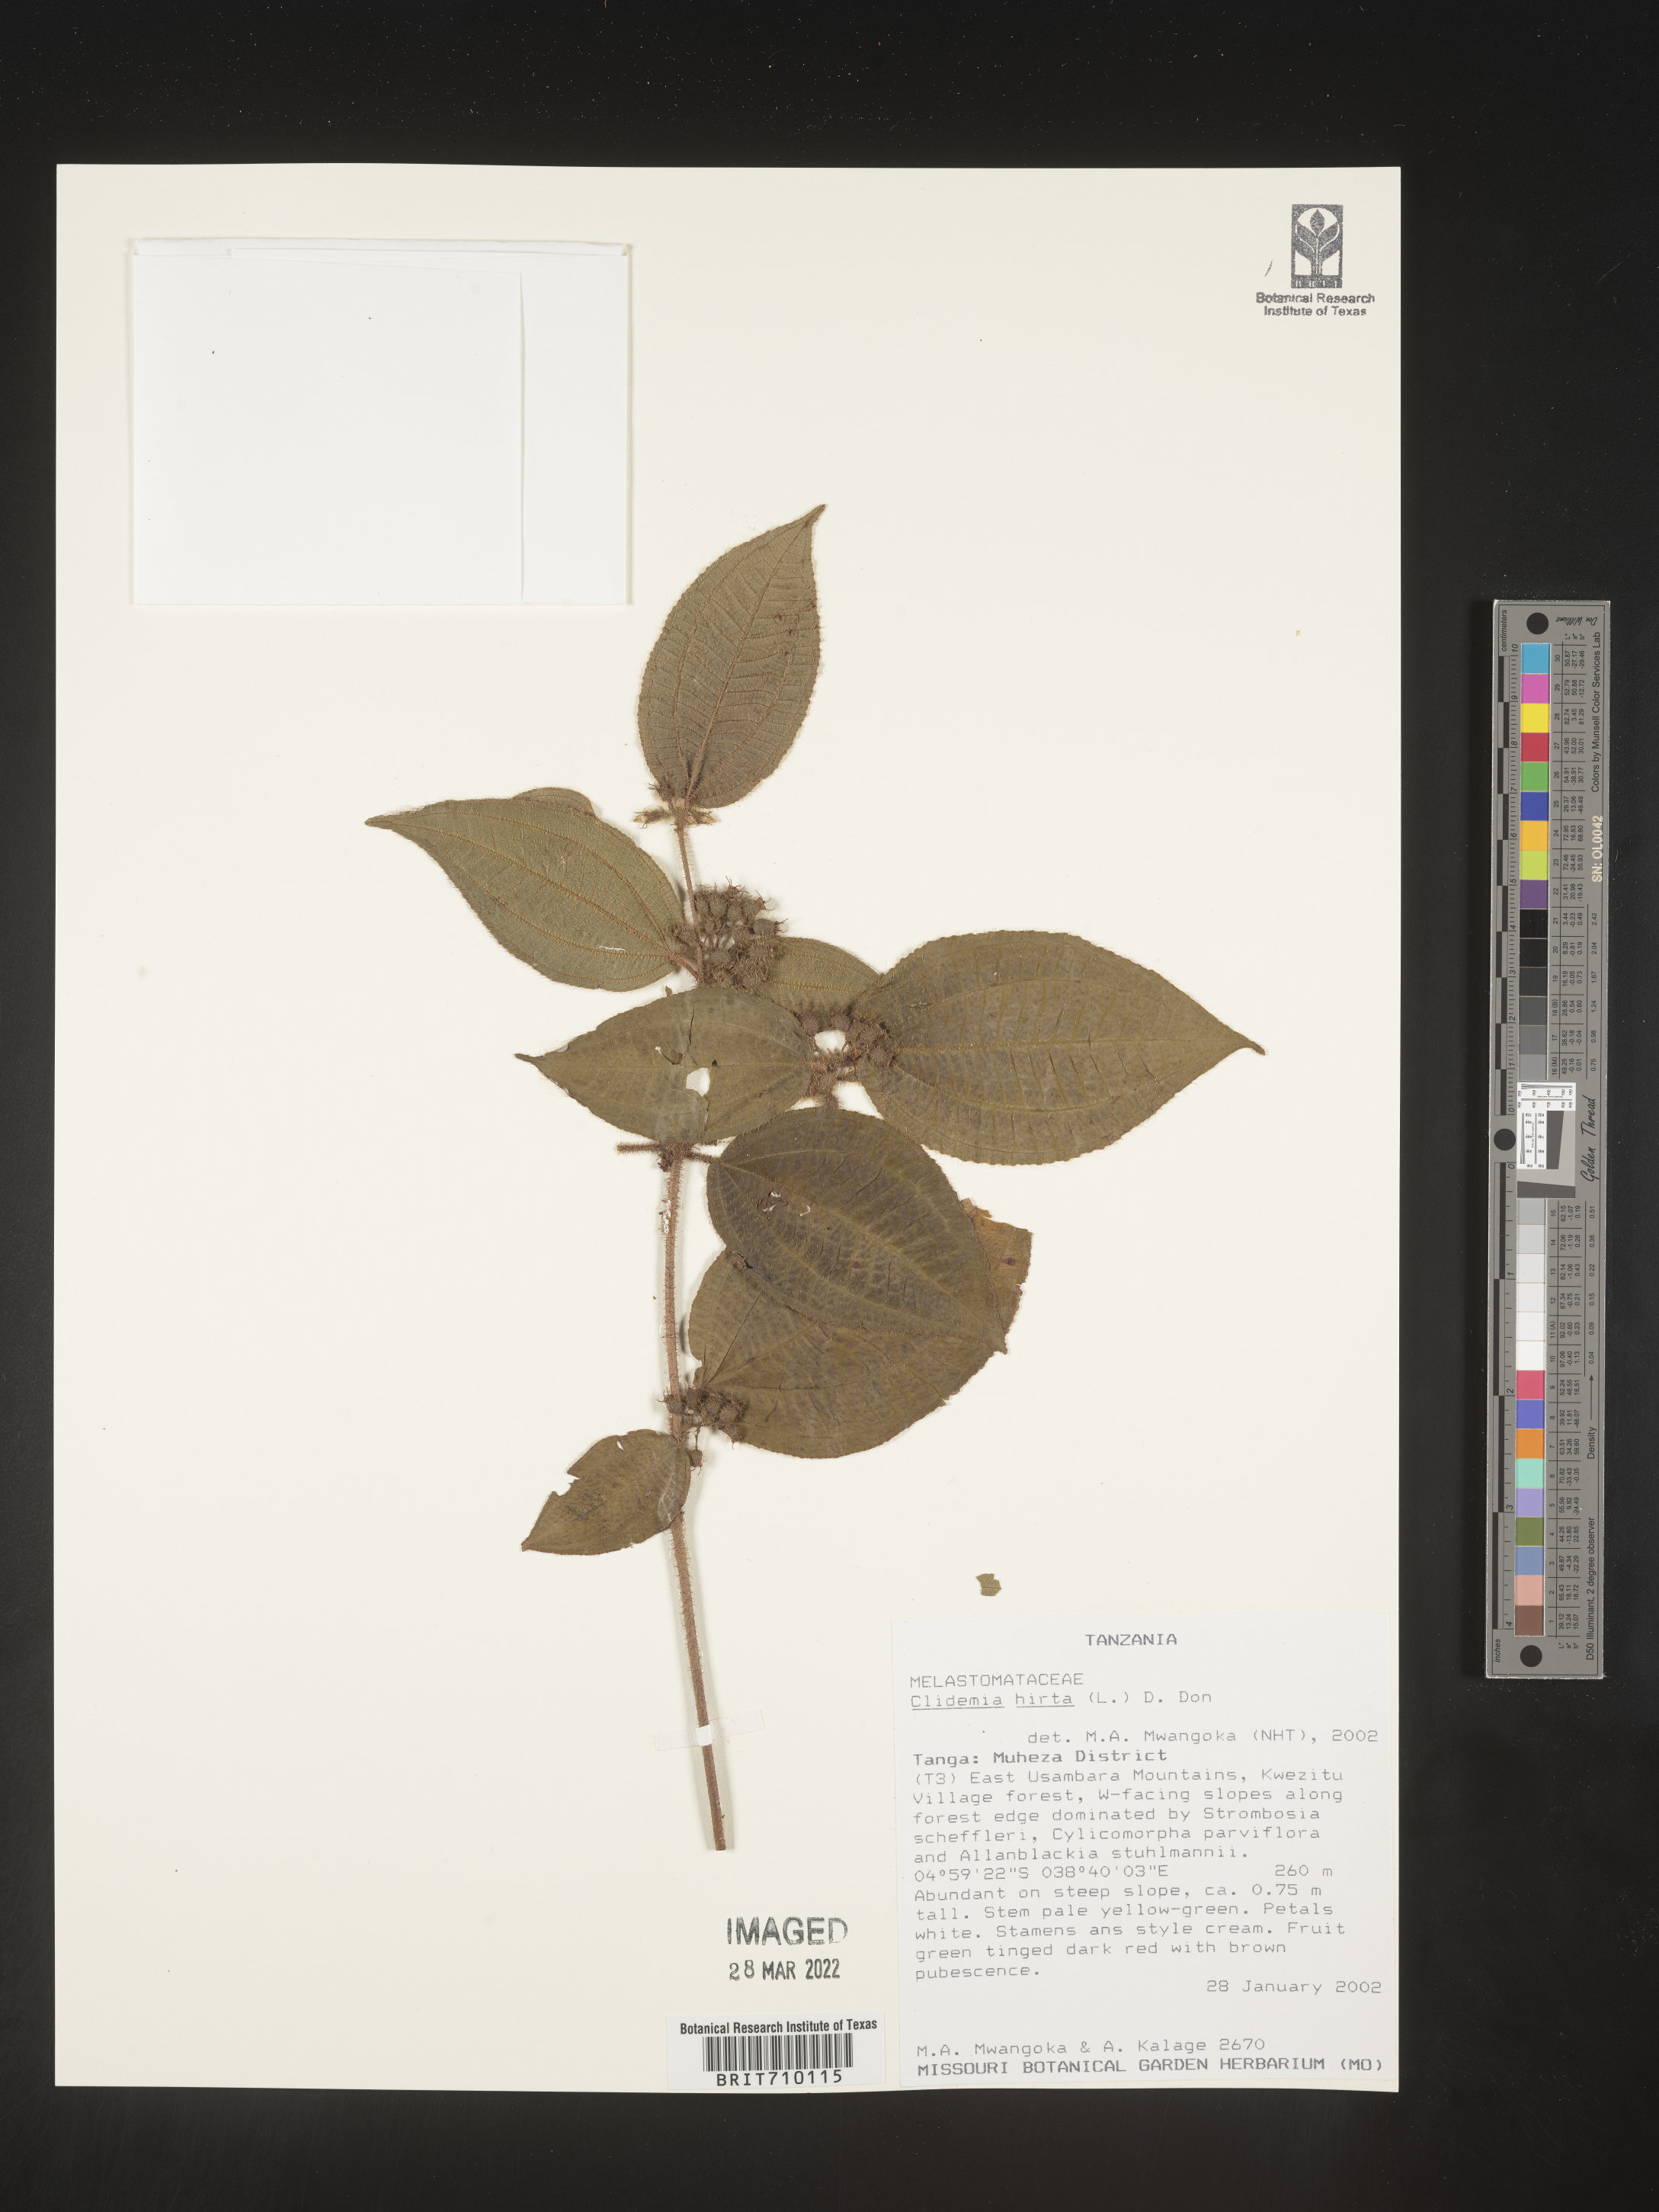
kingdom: Plantae
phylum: Tracheophyta
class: Magnoliopsida
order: Myrtales
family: Melastomataceae
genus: Miconia
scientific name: Miconia
